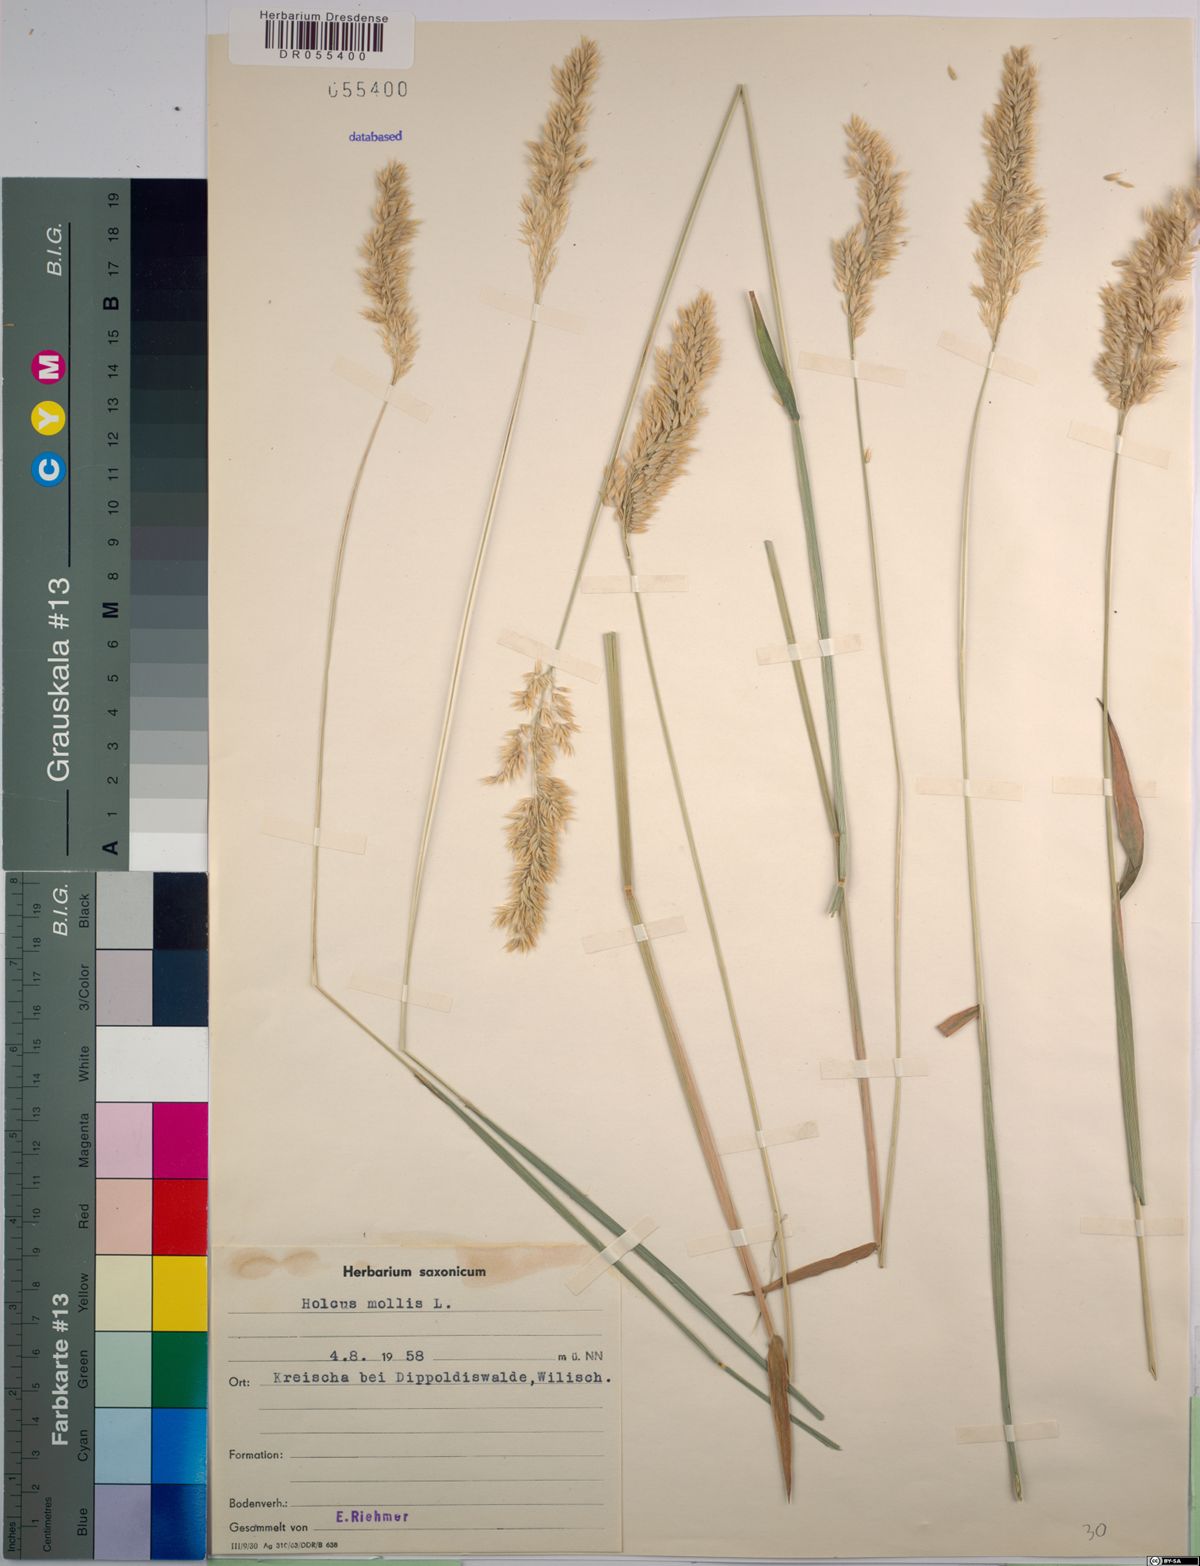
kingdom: Plantae
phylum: Tracheophyta
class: Liliopsida
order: Poales
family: Poaceae
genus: Holcus
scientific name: Holcus mollis
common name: Creeping velvetgrass
